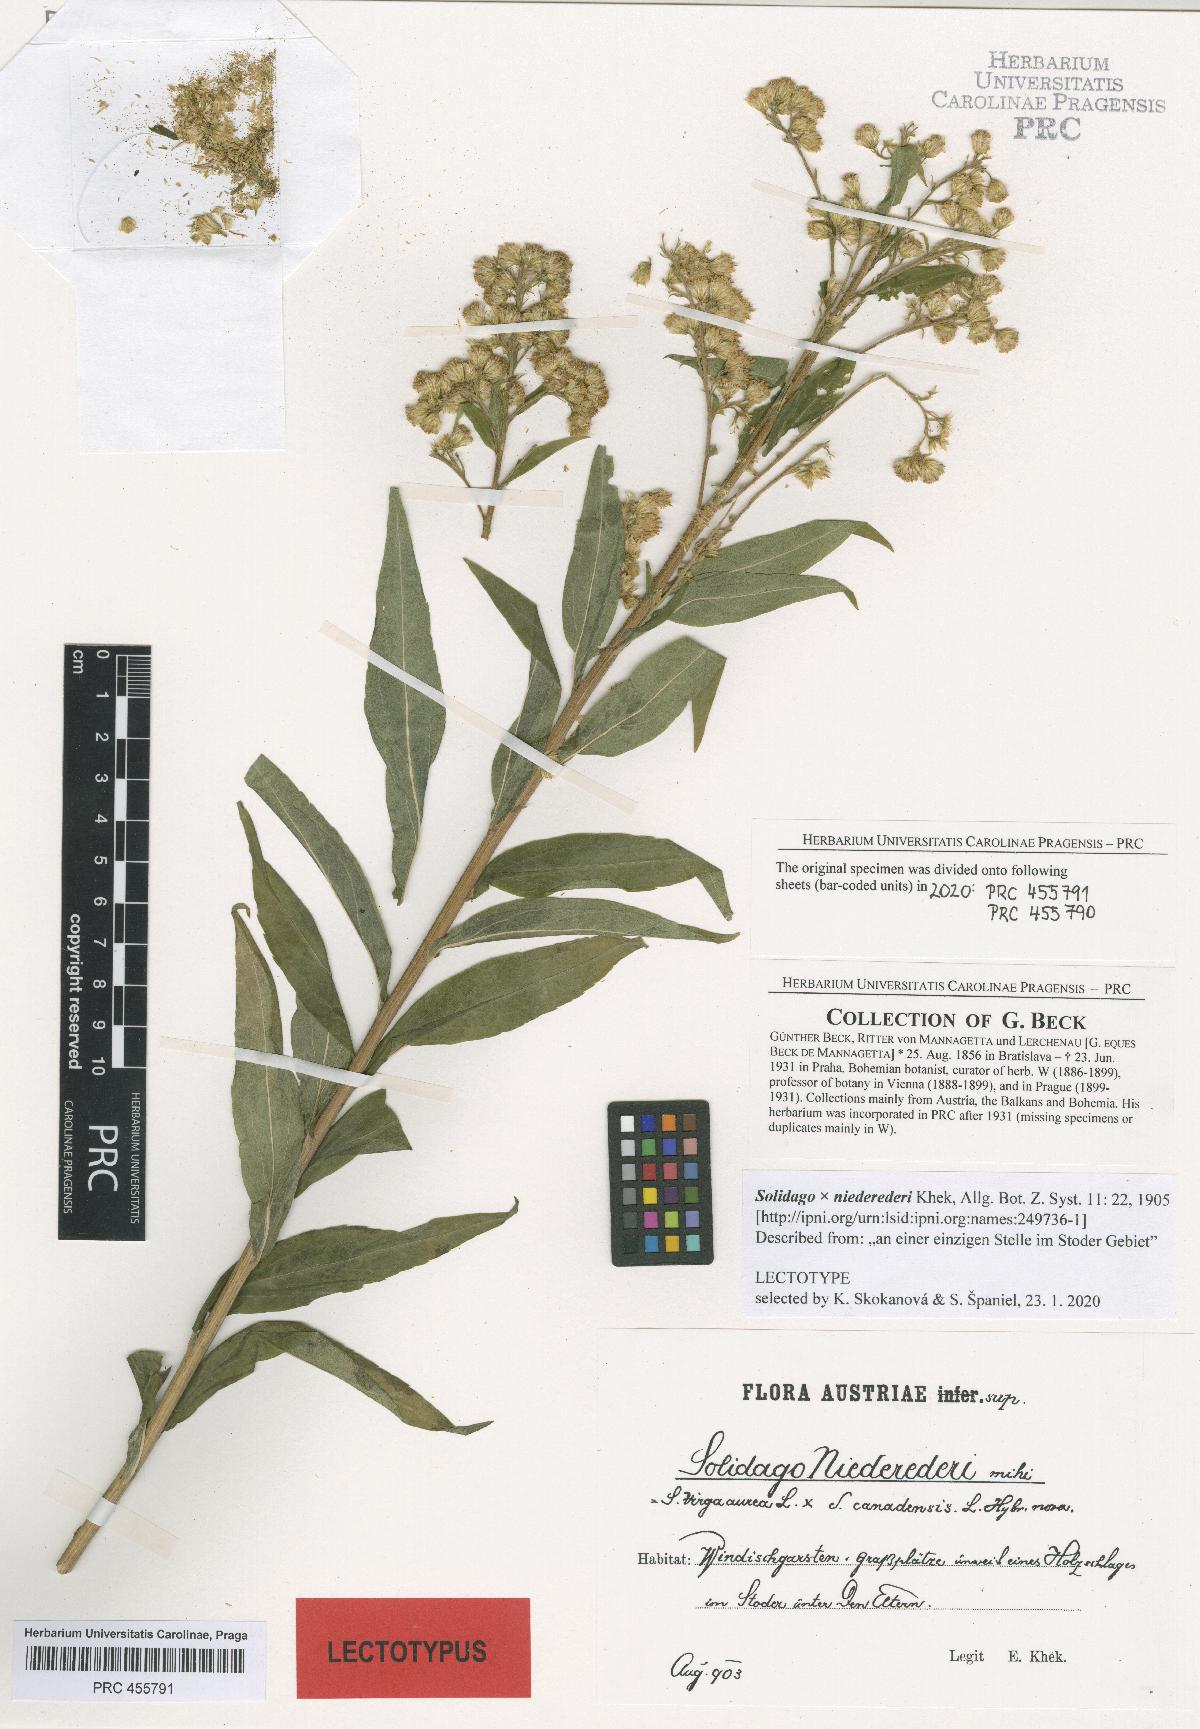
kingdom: Plantae
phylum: Tracheophyta
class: Magnoliopsida
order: Asterales
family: Asteraceae
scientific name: Asteraceae
